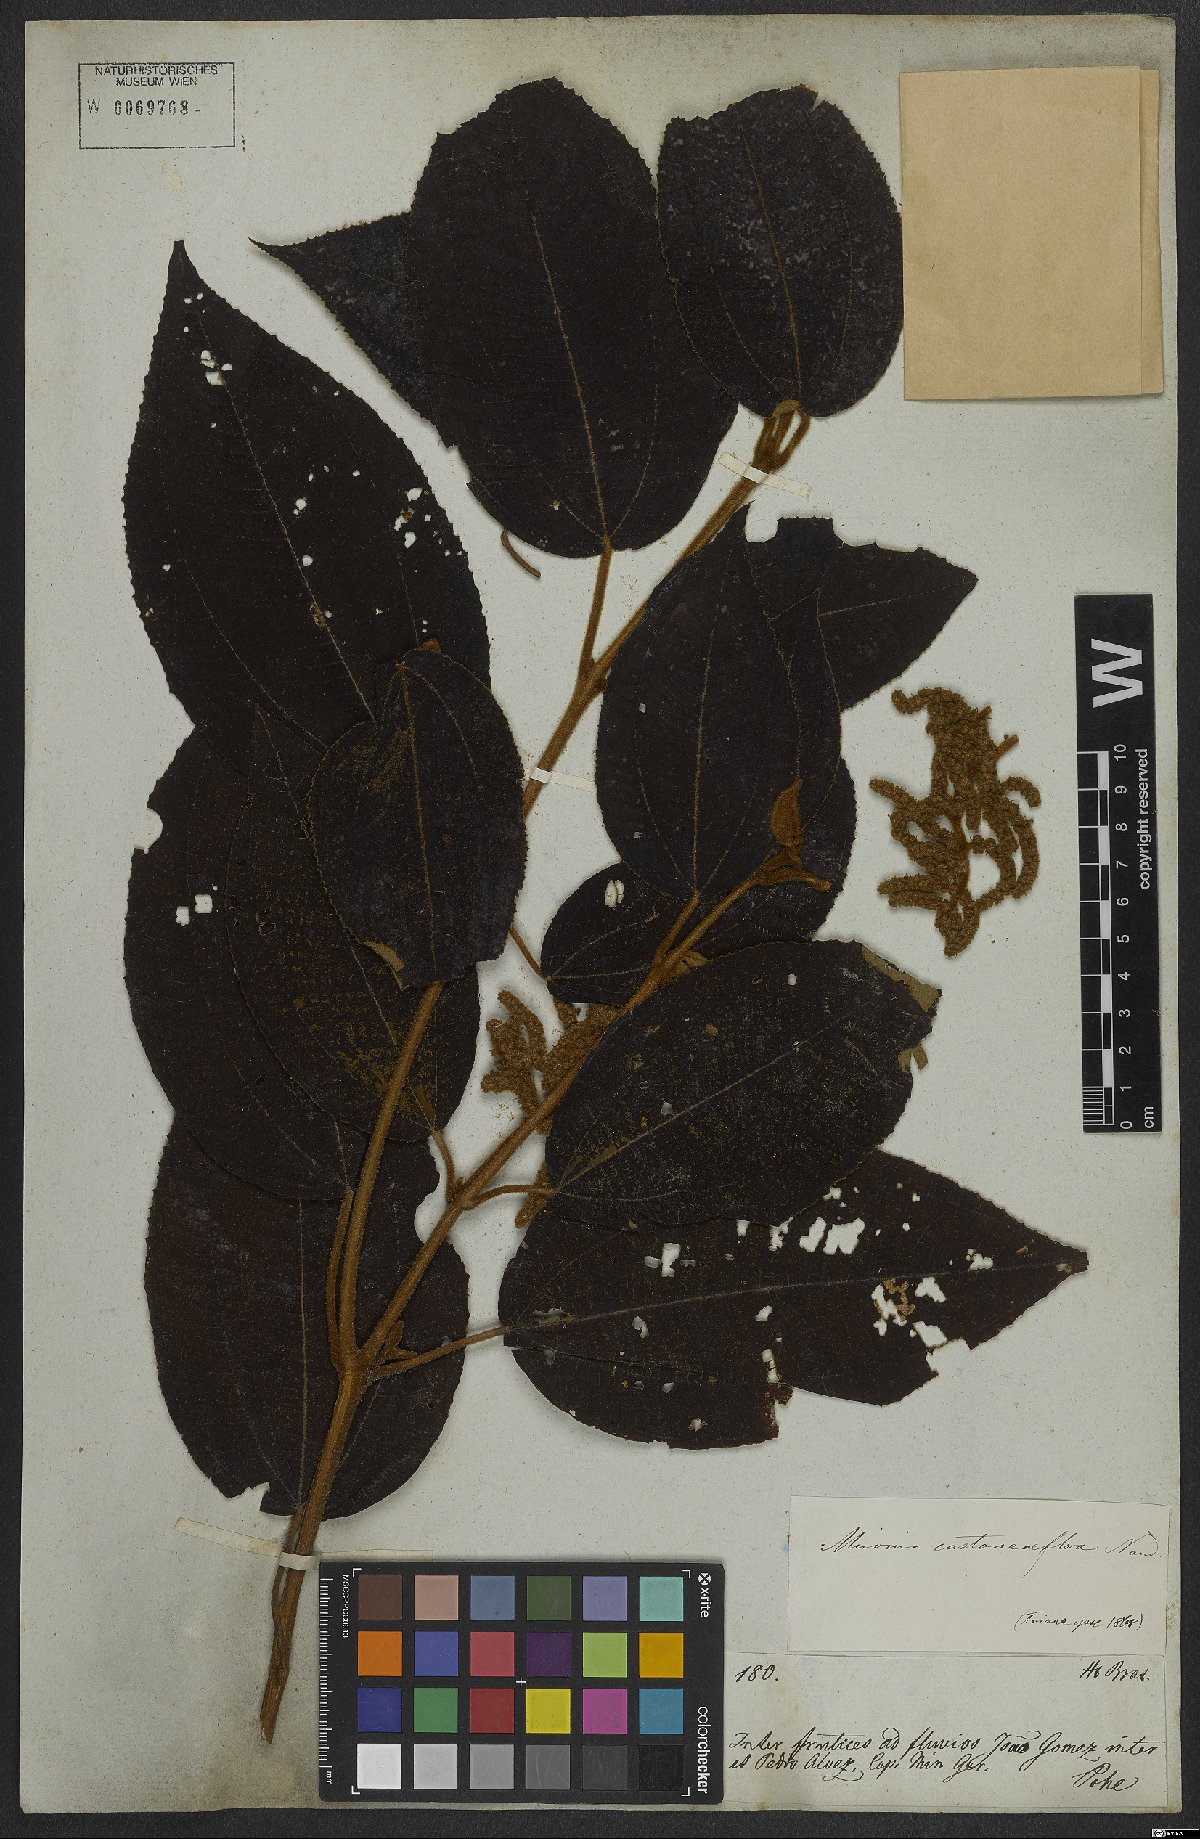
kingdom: Plantae
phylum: Tracheophyta
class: Magnoliopsida
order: Myrtales
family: Melastomataceae
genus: Miconia
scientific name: Miconia castaneifolia
